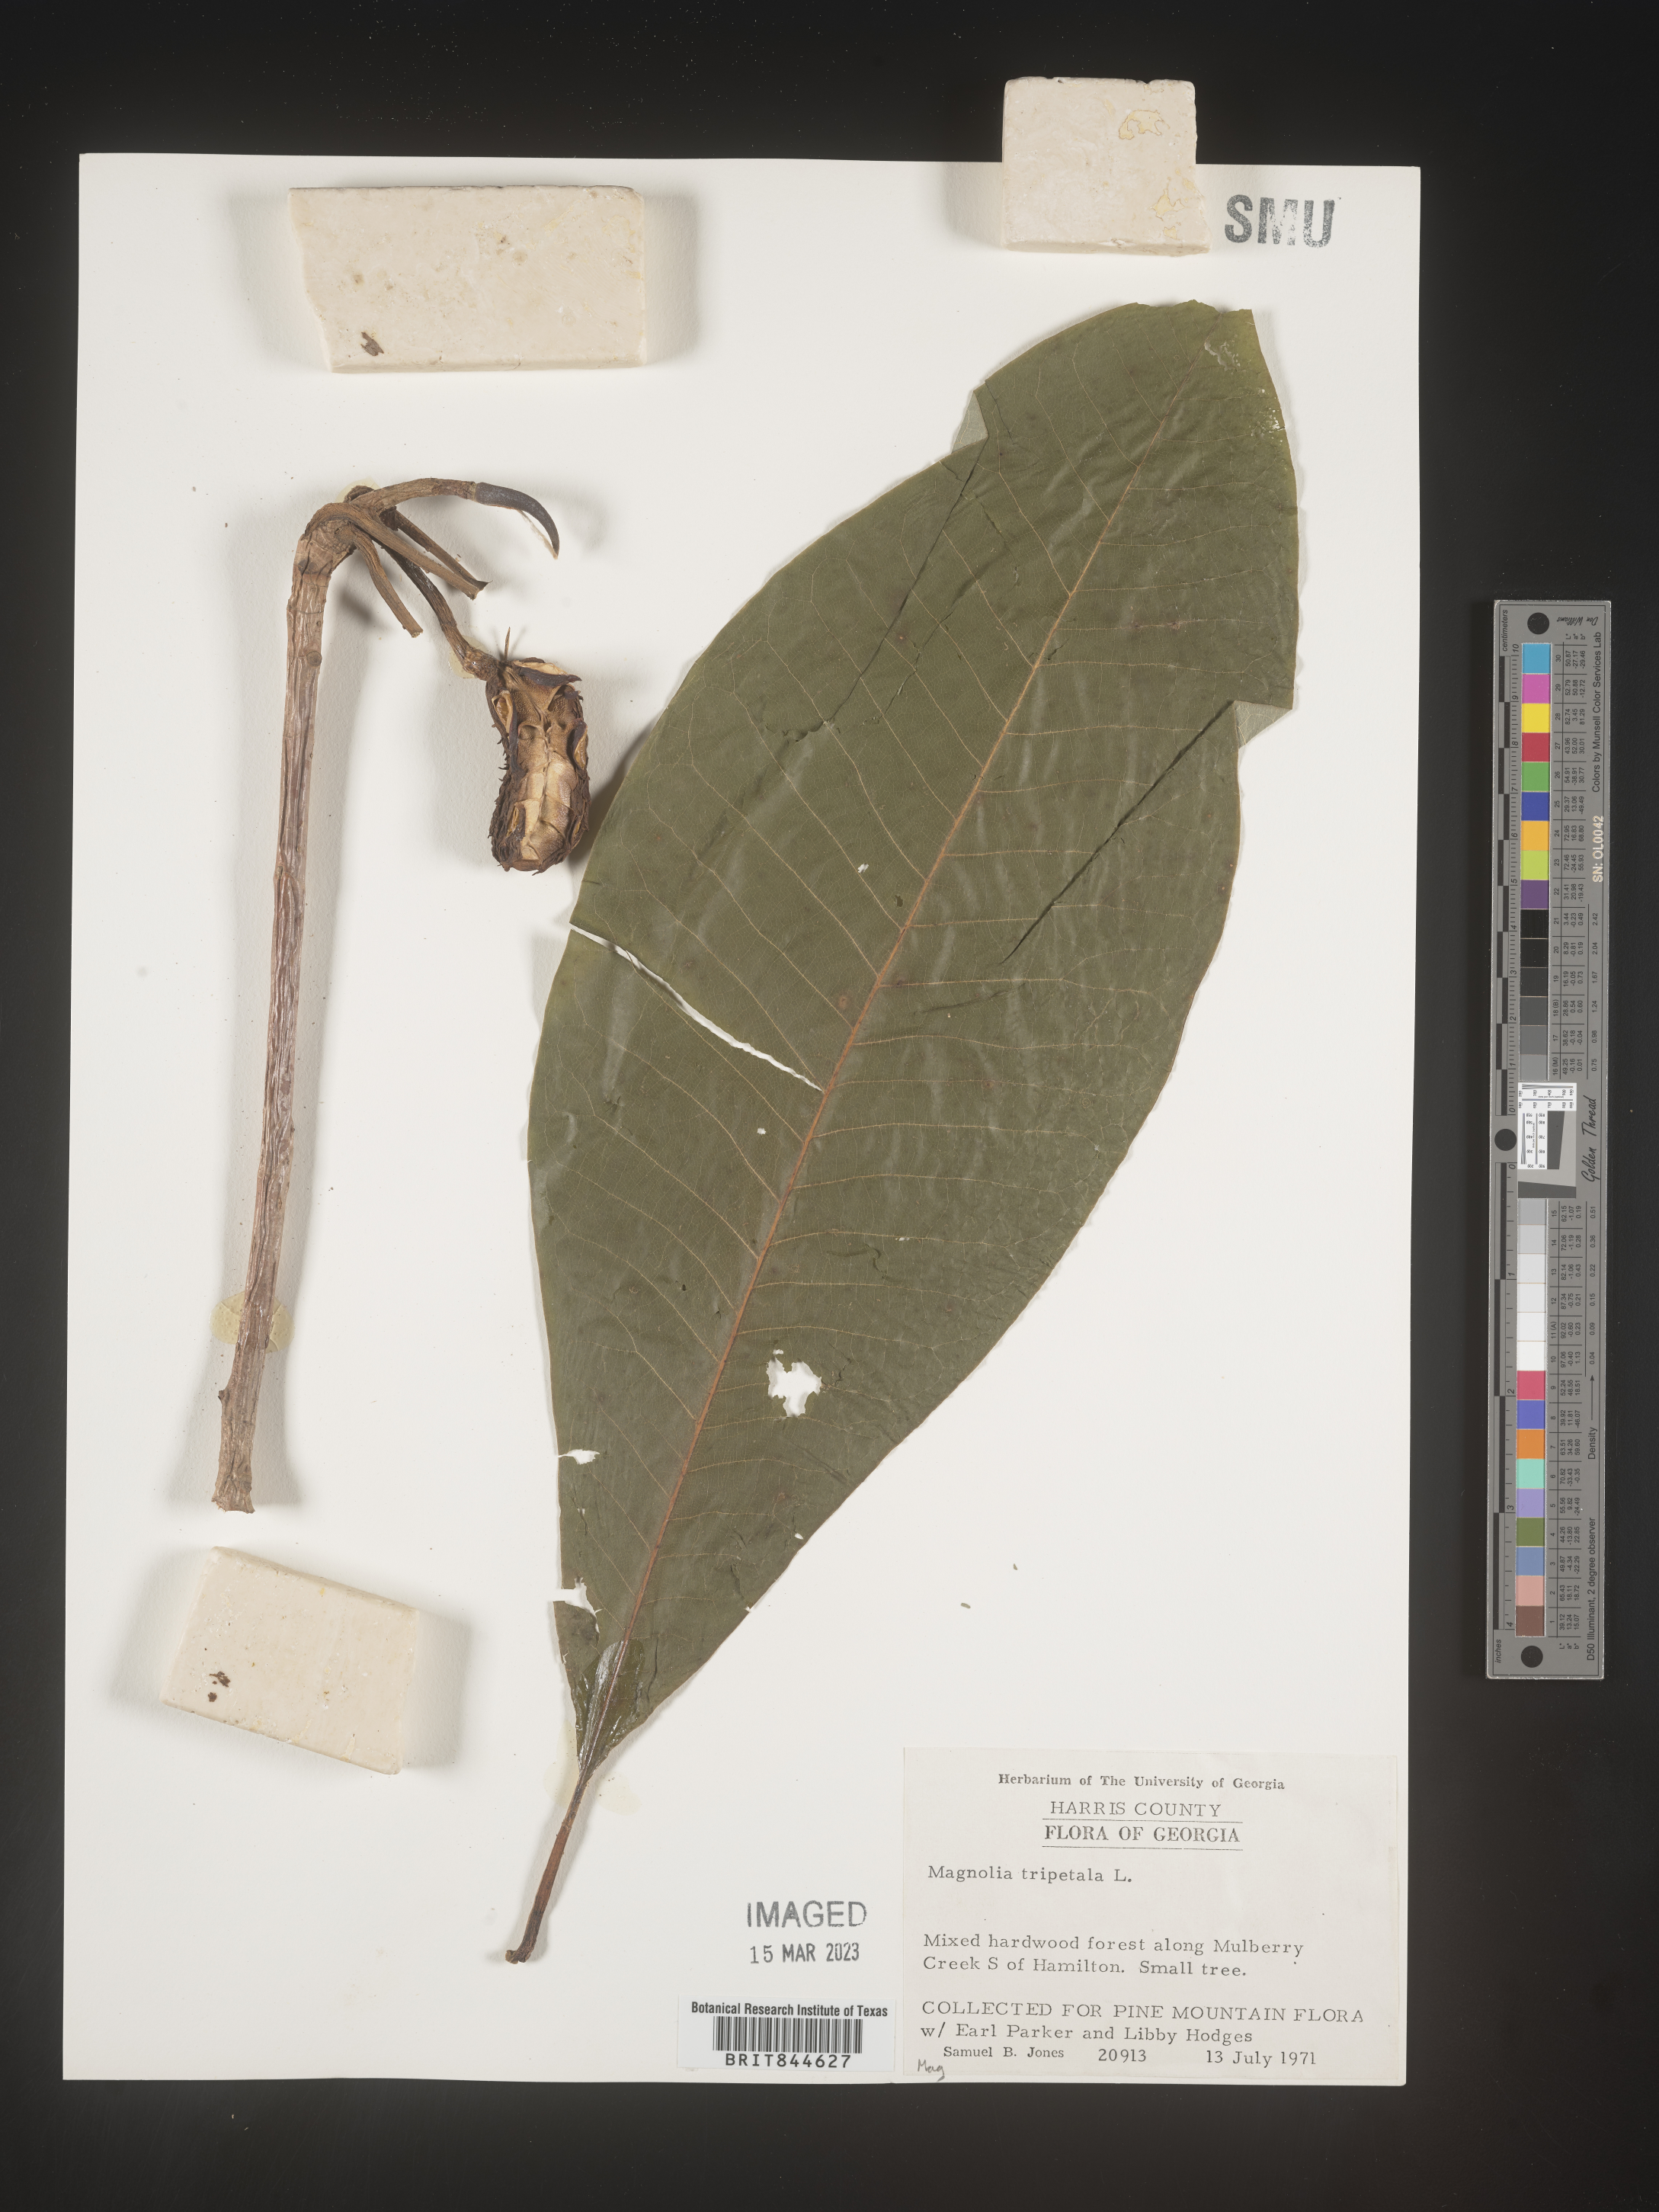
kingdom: Plantae
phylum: Tracheophyta
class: Magnoliopsida
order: Magnoliales
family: Magnoliaceae
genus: Magnolia
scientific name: Magnolia tripetala
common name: Umbrella magnolia
